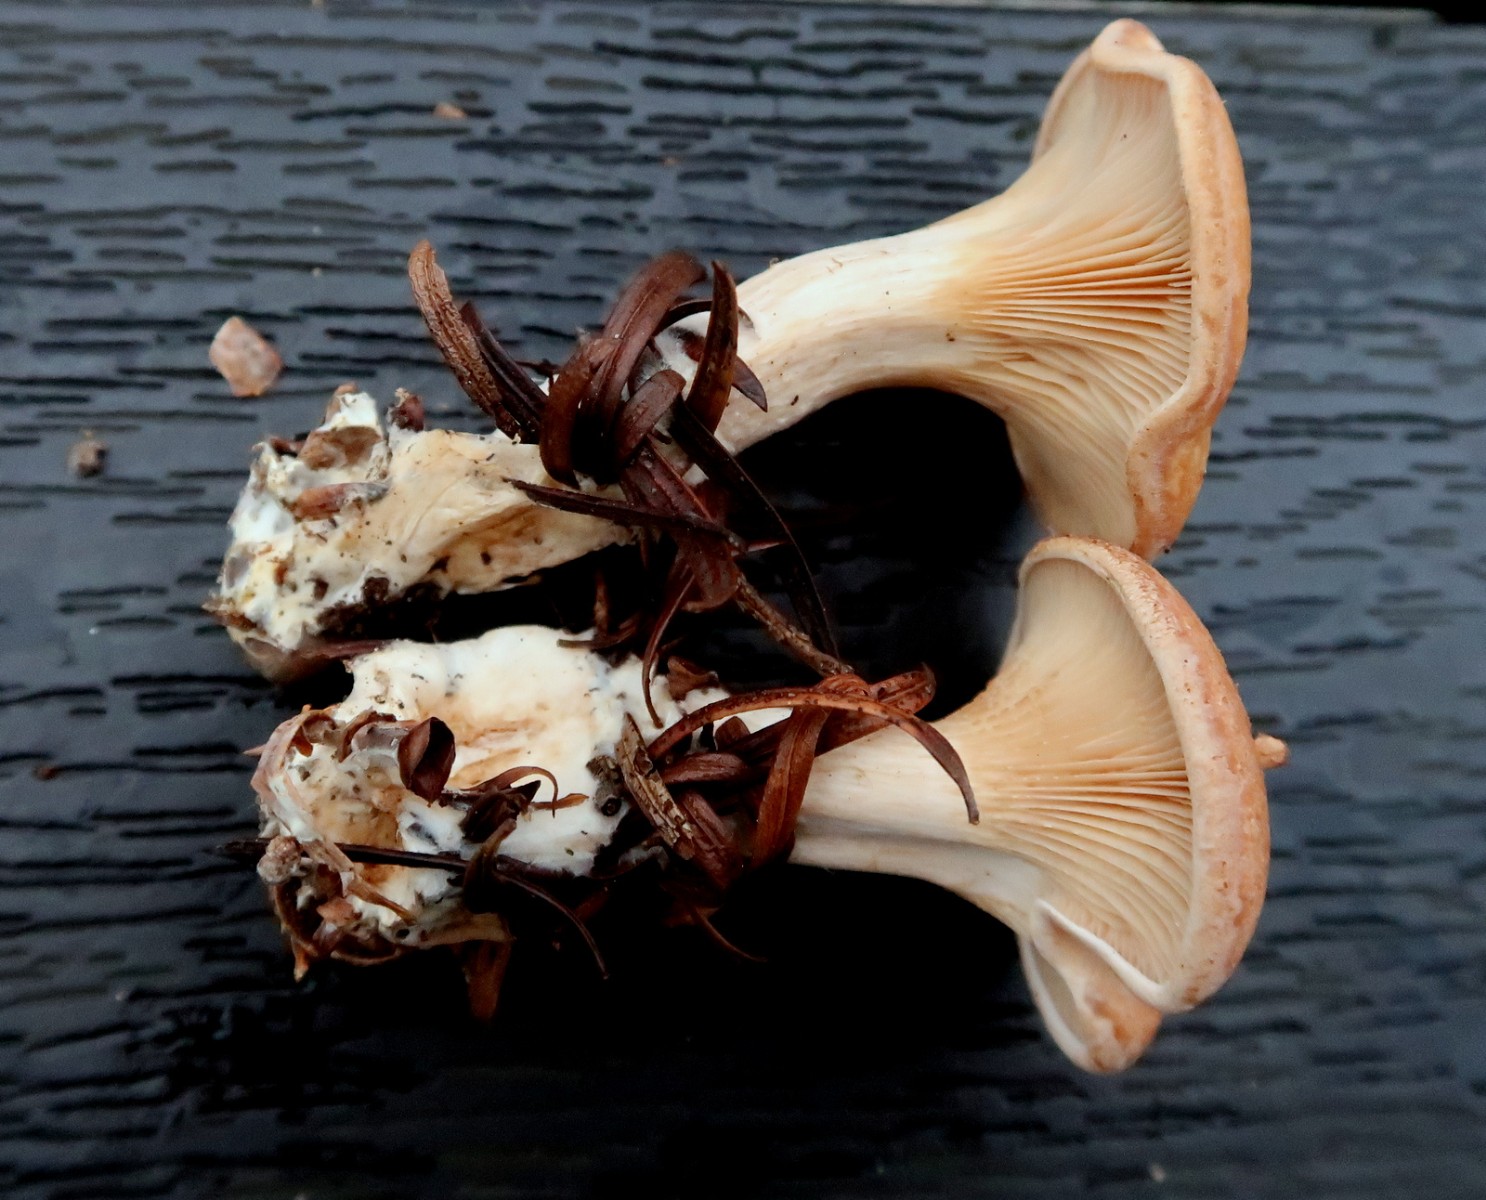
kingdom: Fungi
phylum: Basidiomycota
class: Agaricomycetes
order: Agaricales
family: Tricholomataceae
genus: Paralepista
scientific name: Paralepista gilva
